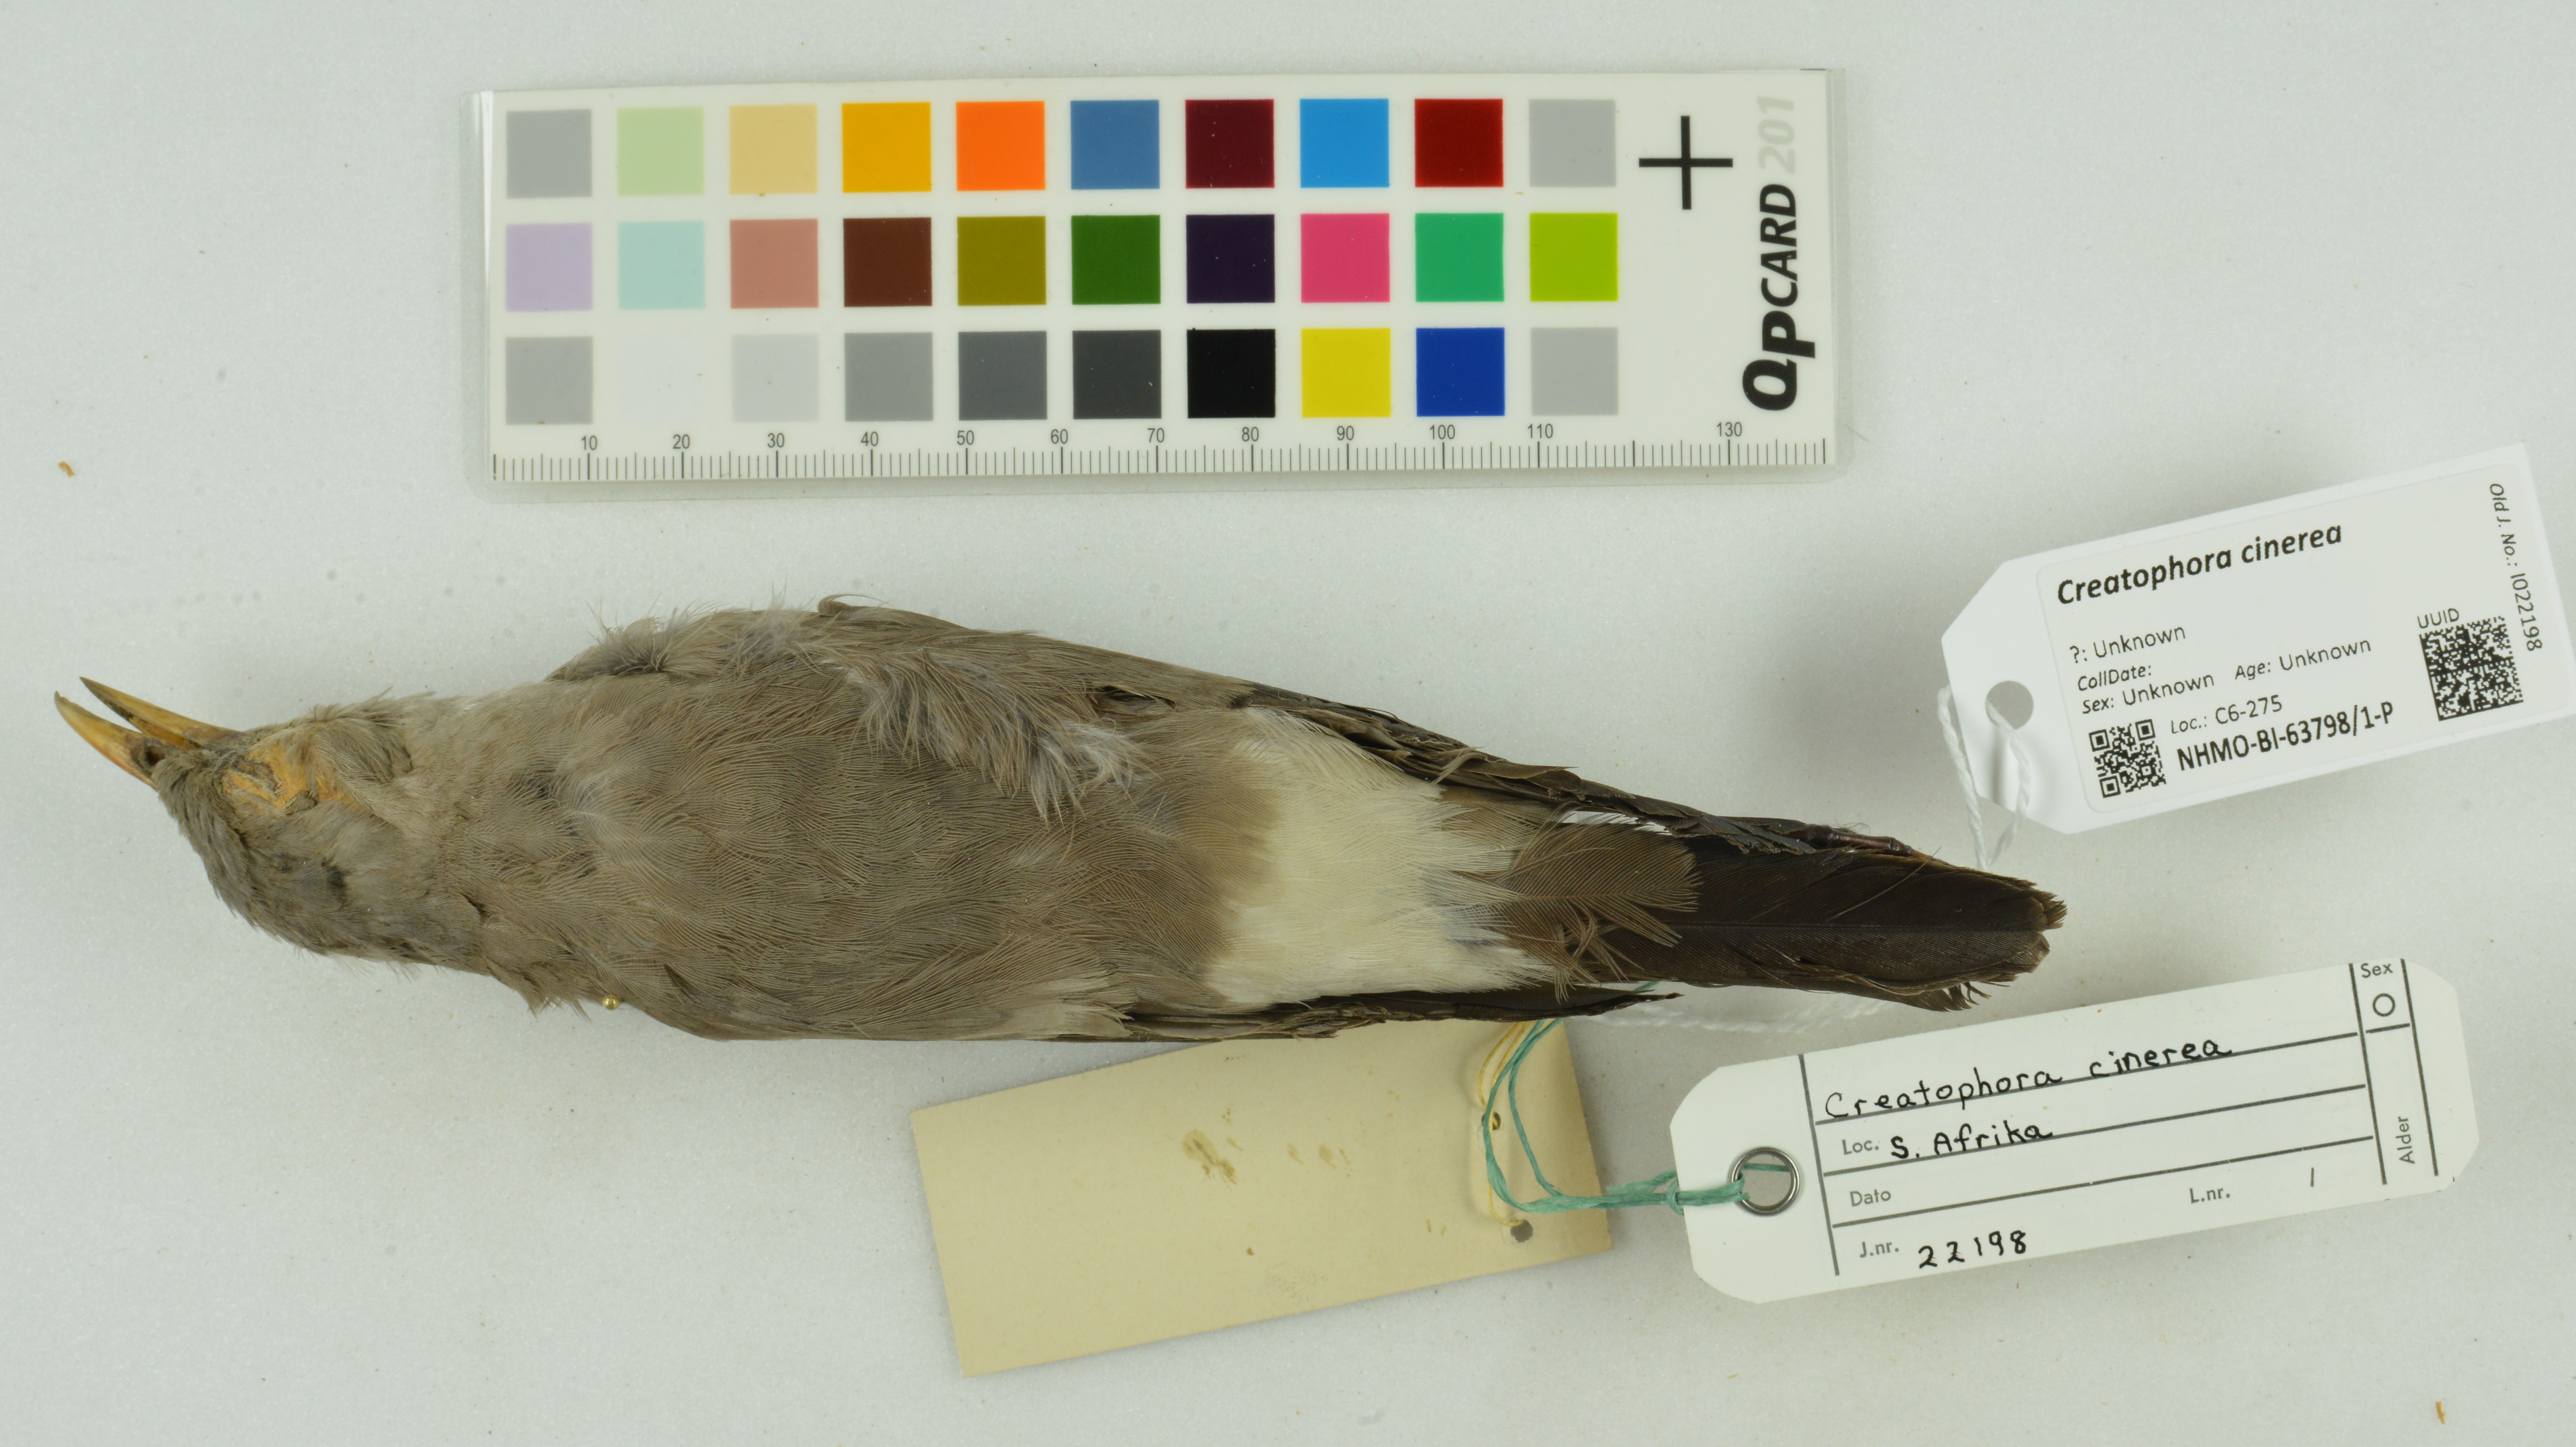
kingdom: Animalia
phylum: Chordata
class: Aves
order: Passeriformes
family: Sturnidae
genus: Creatophora
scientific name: Creatophora cinerea
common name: Wattled starling
